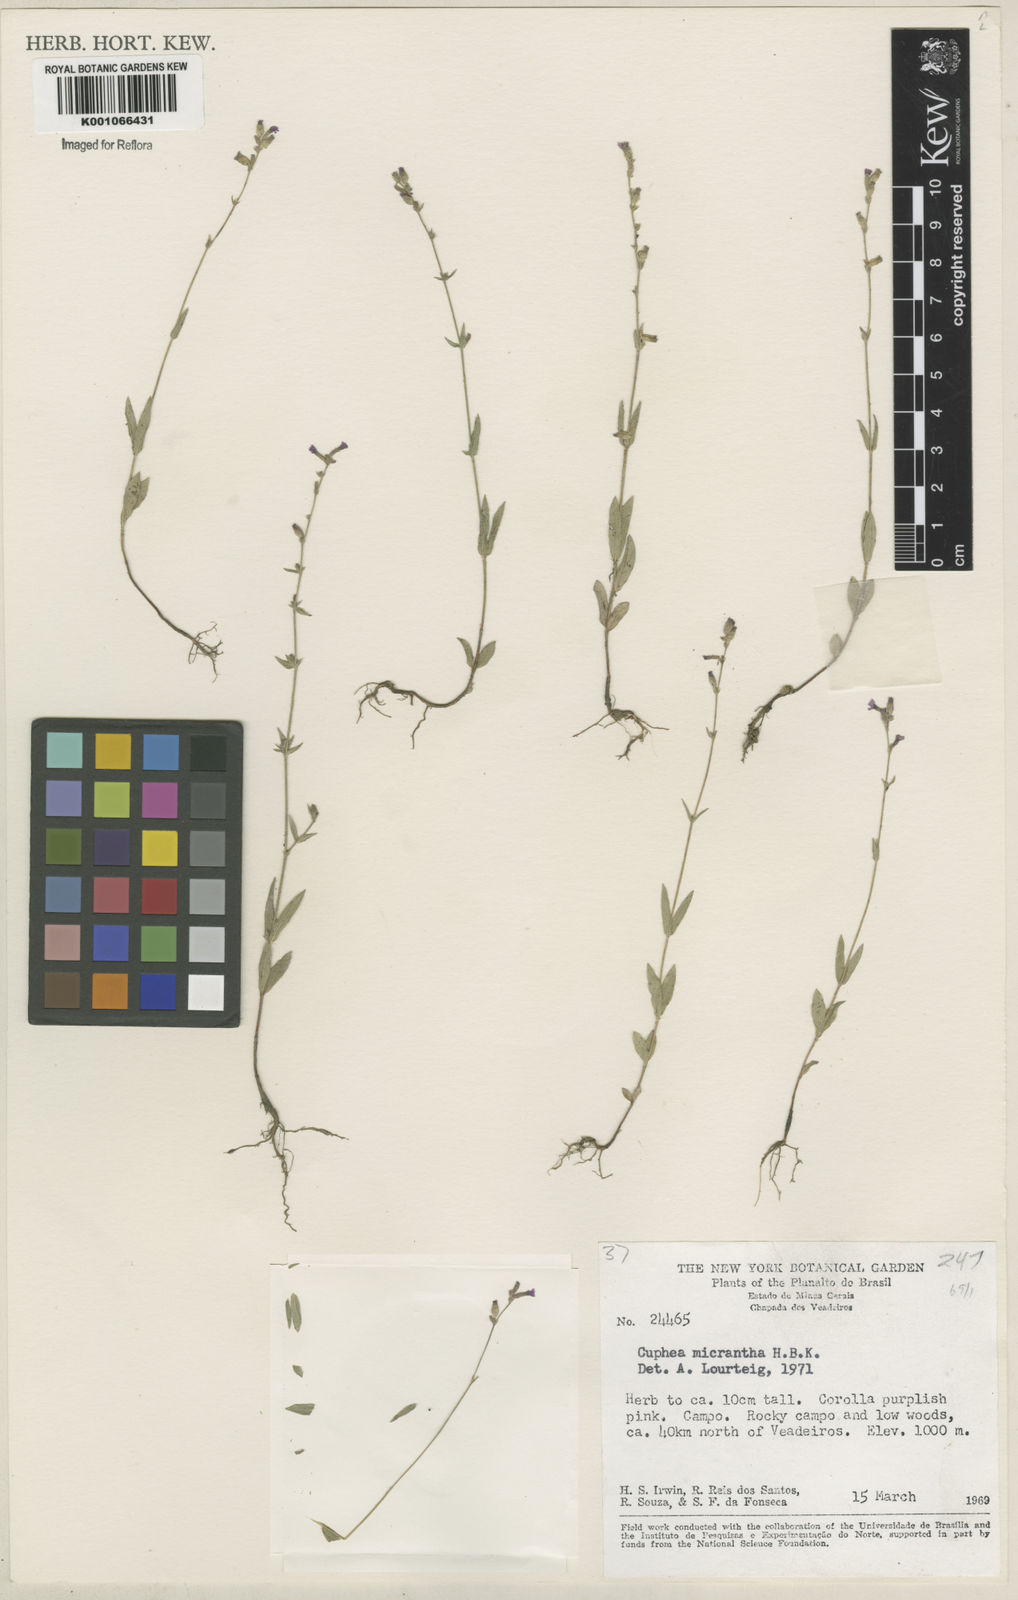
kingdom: Plantae
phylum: Tracheophyta
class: Magnoliopsida
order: Myrtales
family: Lythraceae
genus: Cuphea
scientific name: Cuphea micrantha
